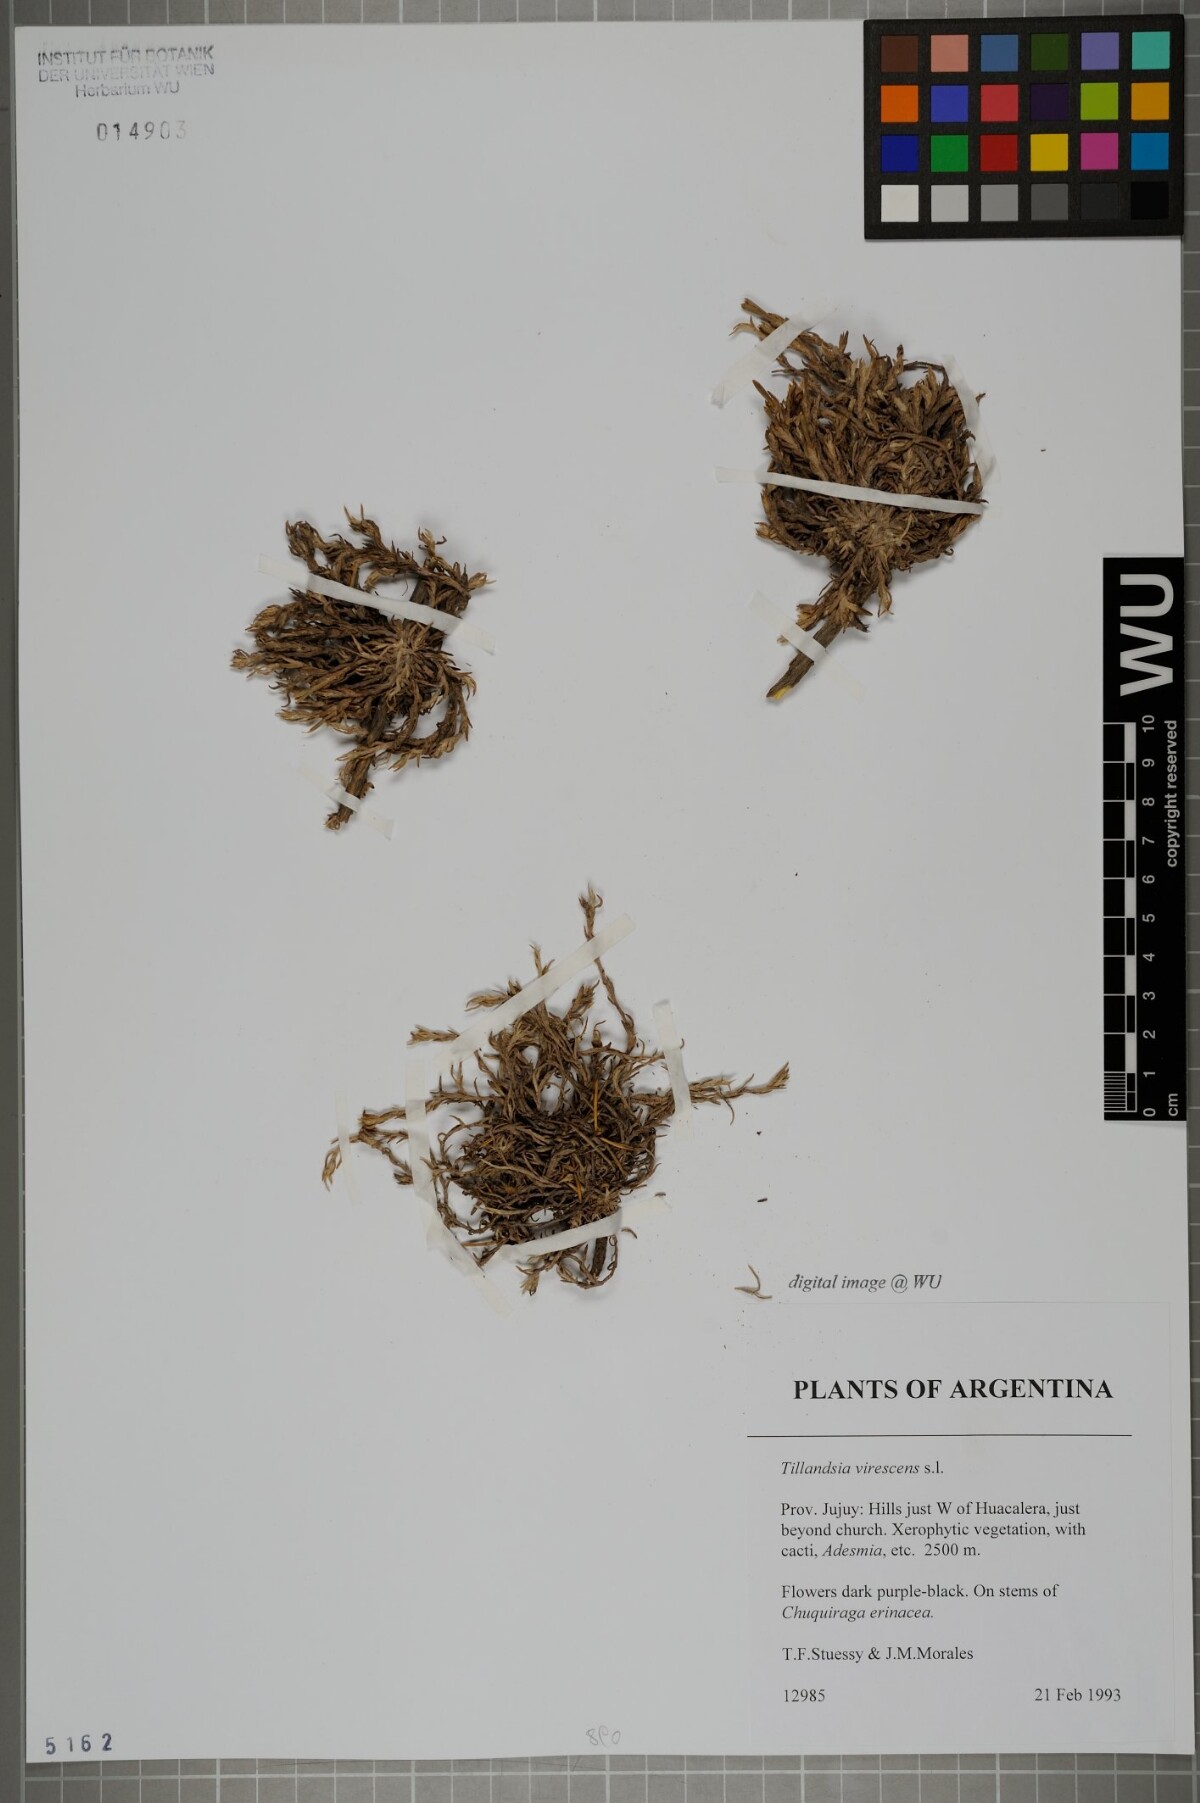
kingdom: Plantae
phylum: Tracheophyta
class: Liliopsida
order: Poales
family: Bromeliaceae
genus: Tillandsia
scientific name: Tillandsia virescens
